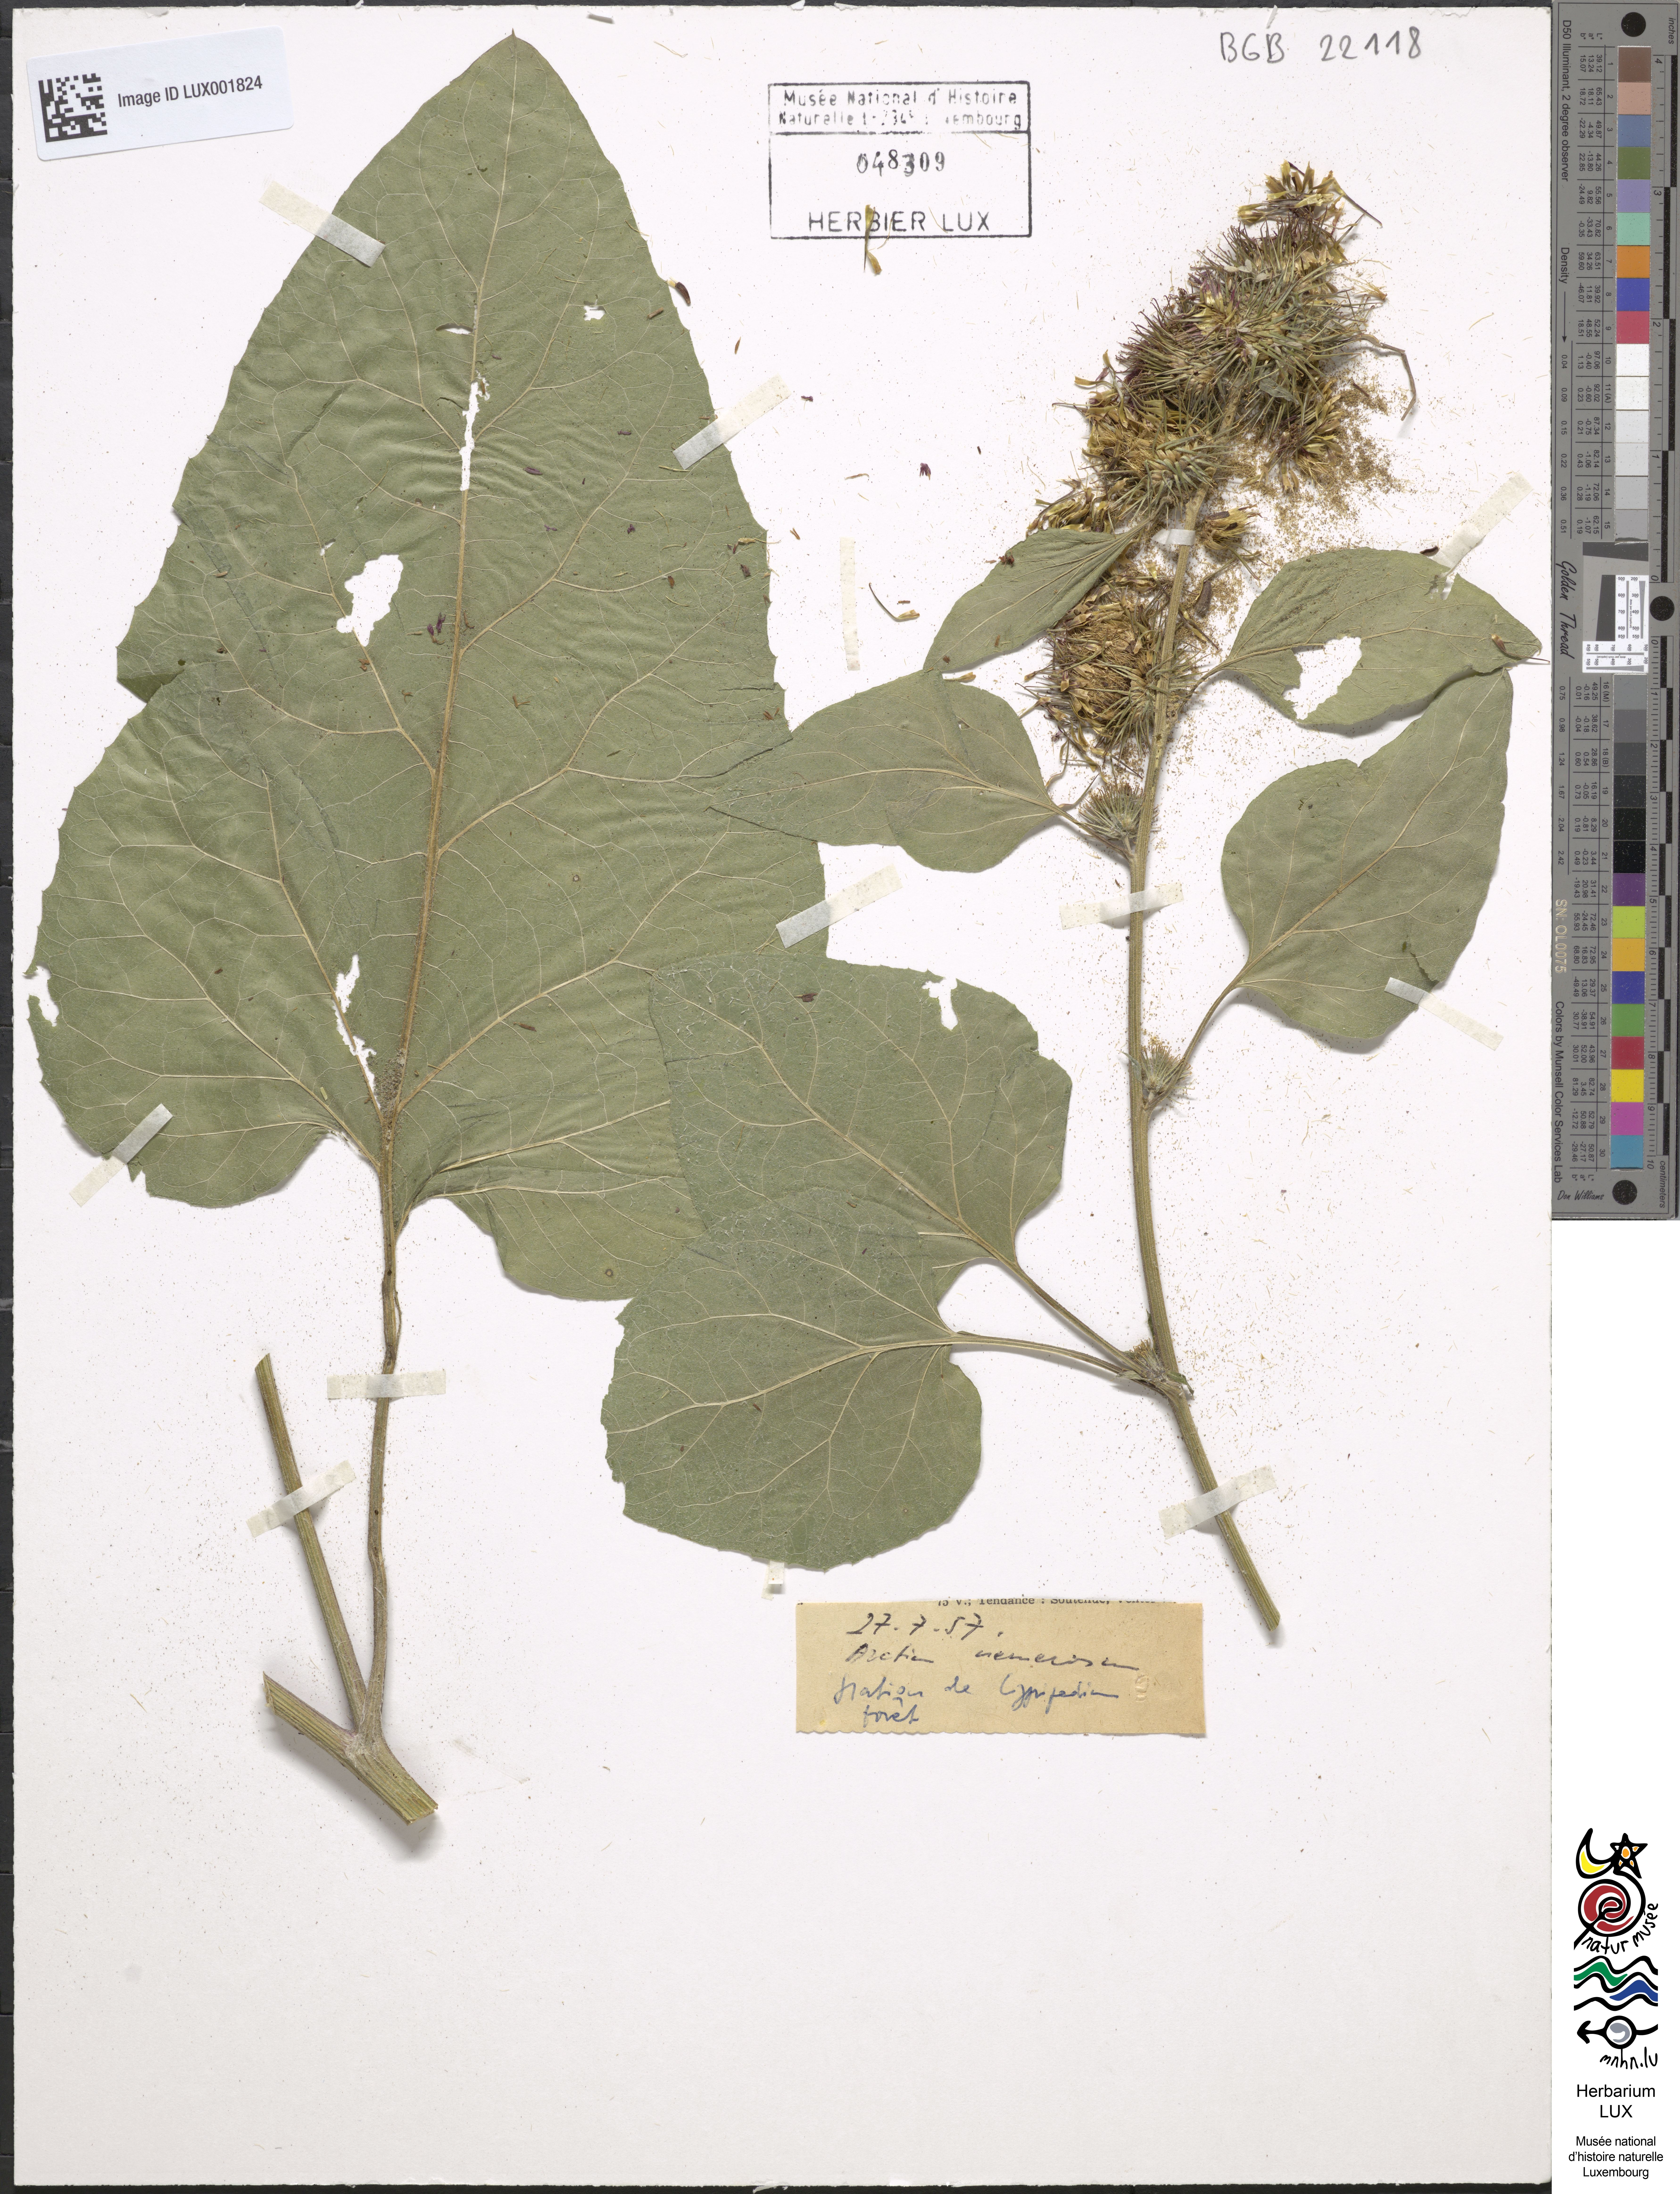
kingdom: Plantae
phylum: Tracheophyta
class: Magnoliopsida
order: Asterales
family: Asteraceae
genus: Arctium
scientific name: Arctium nemorosum
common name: Wood burdock
